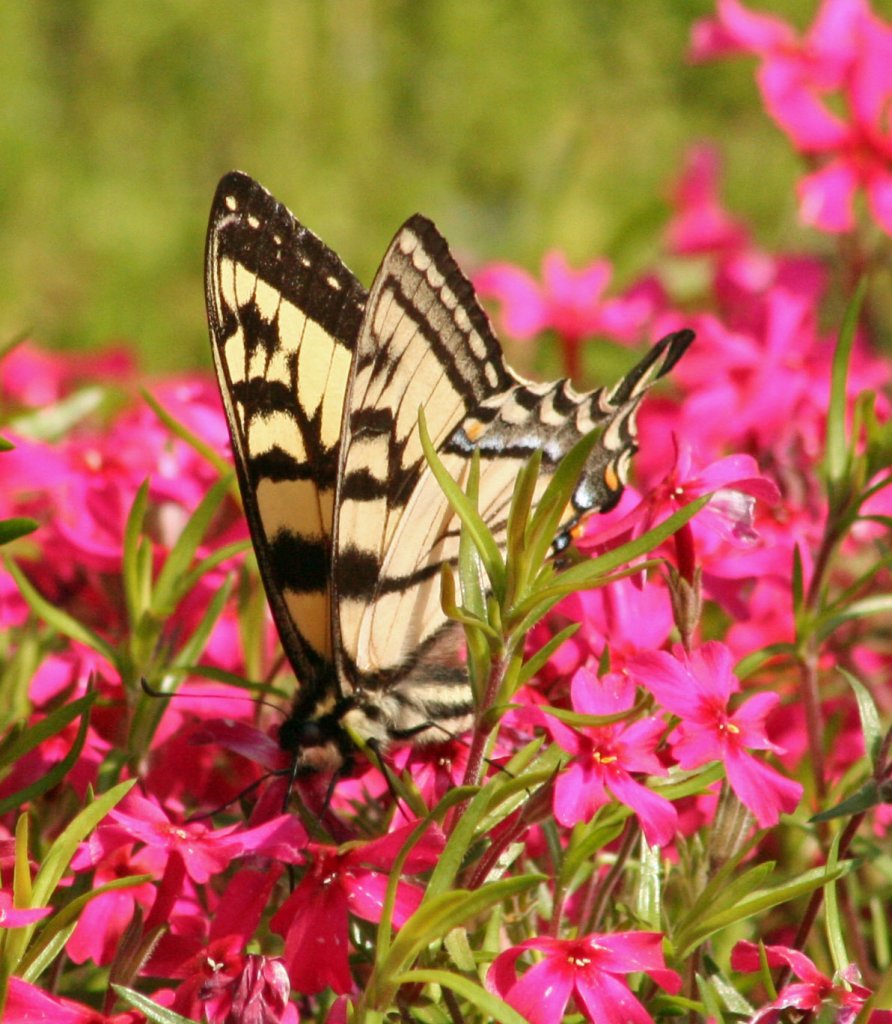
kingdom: Animalia
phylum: Arthropoda
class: Insecta
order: Lepidoptera
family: Papilionidae
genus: Pterourus
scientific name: Pterourus glaucus
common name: Eastern Tiger Swallowtail
